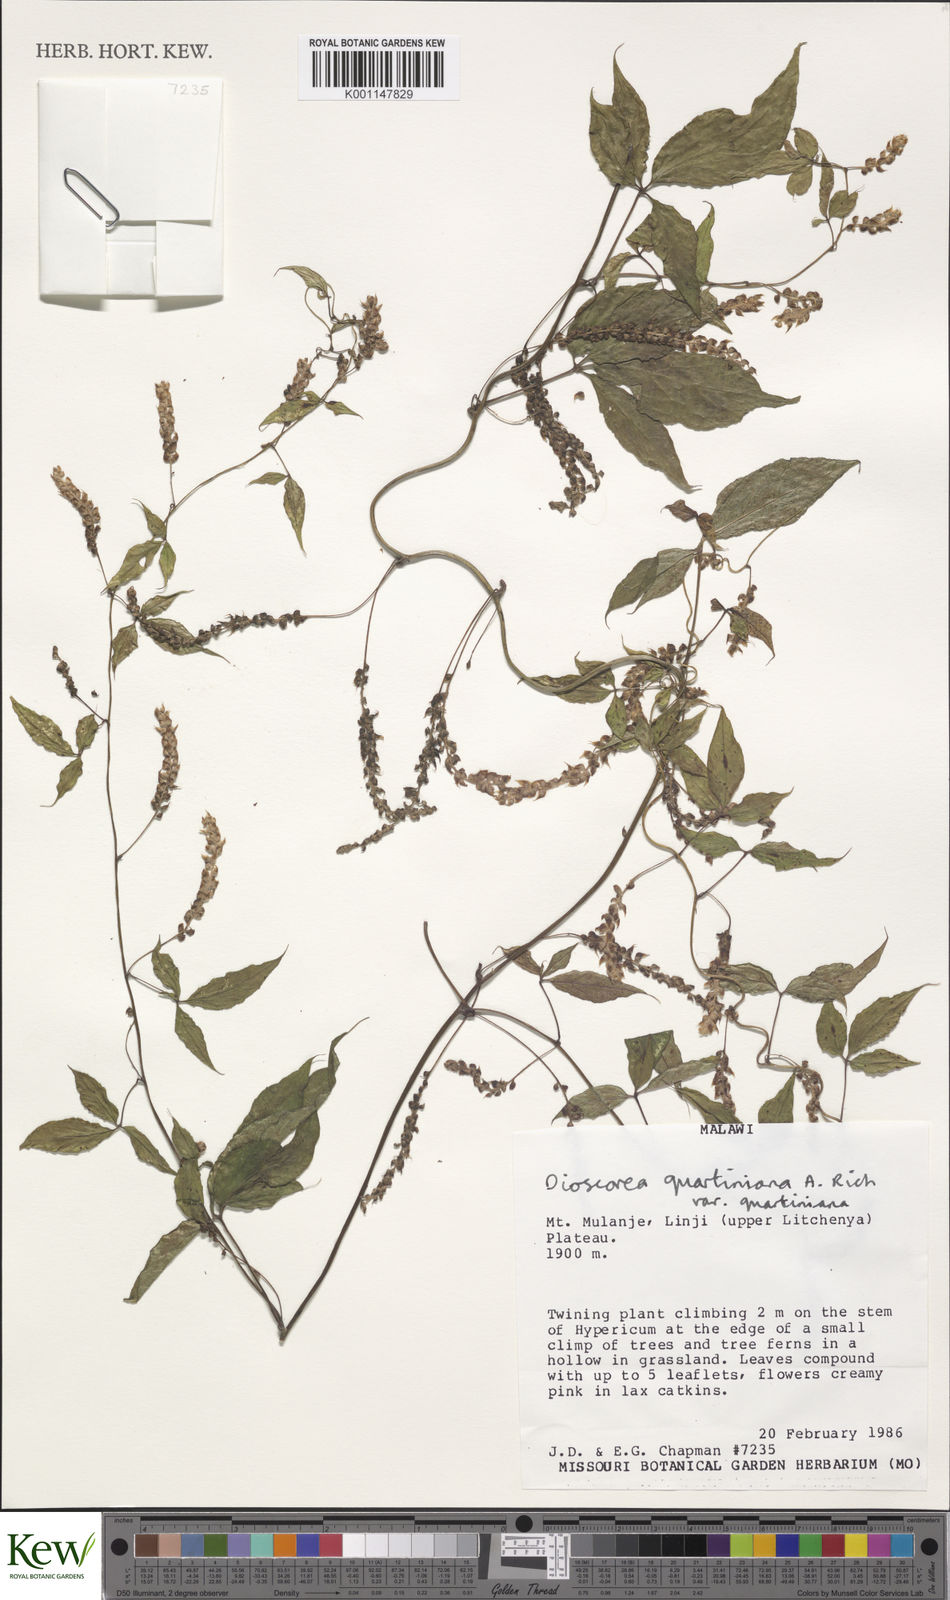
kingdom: Plantae
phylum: Tracheophyta
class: Liliopsida
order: Dioscoreales
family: Dioscoreaceae
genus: Dioscorea
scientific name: Dioscorea quartiniana
